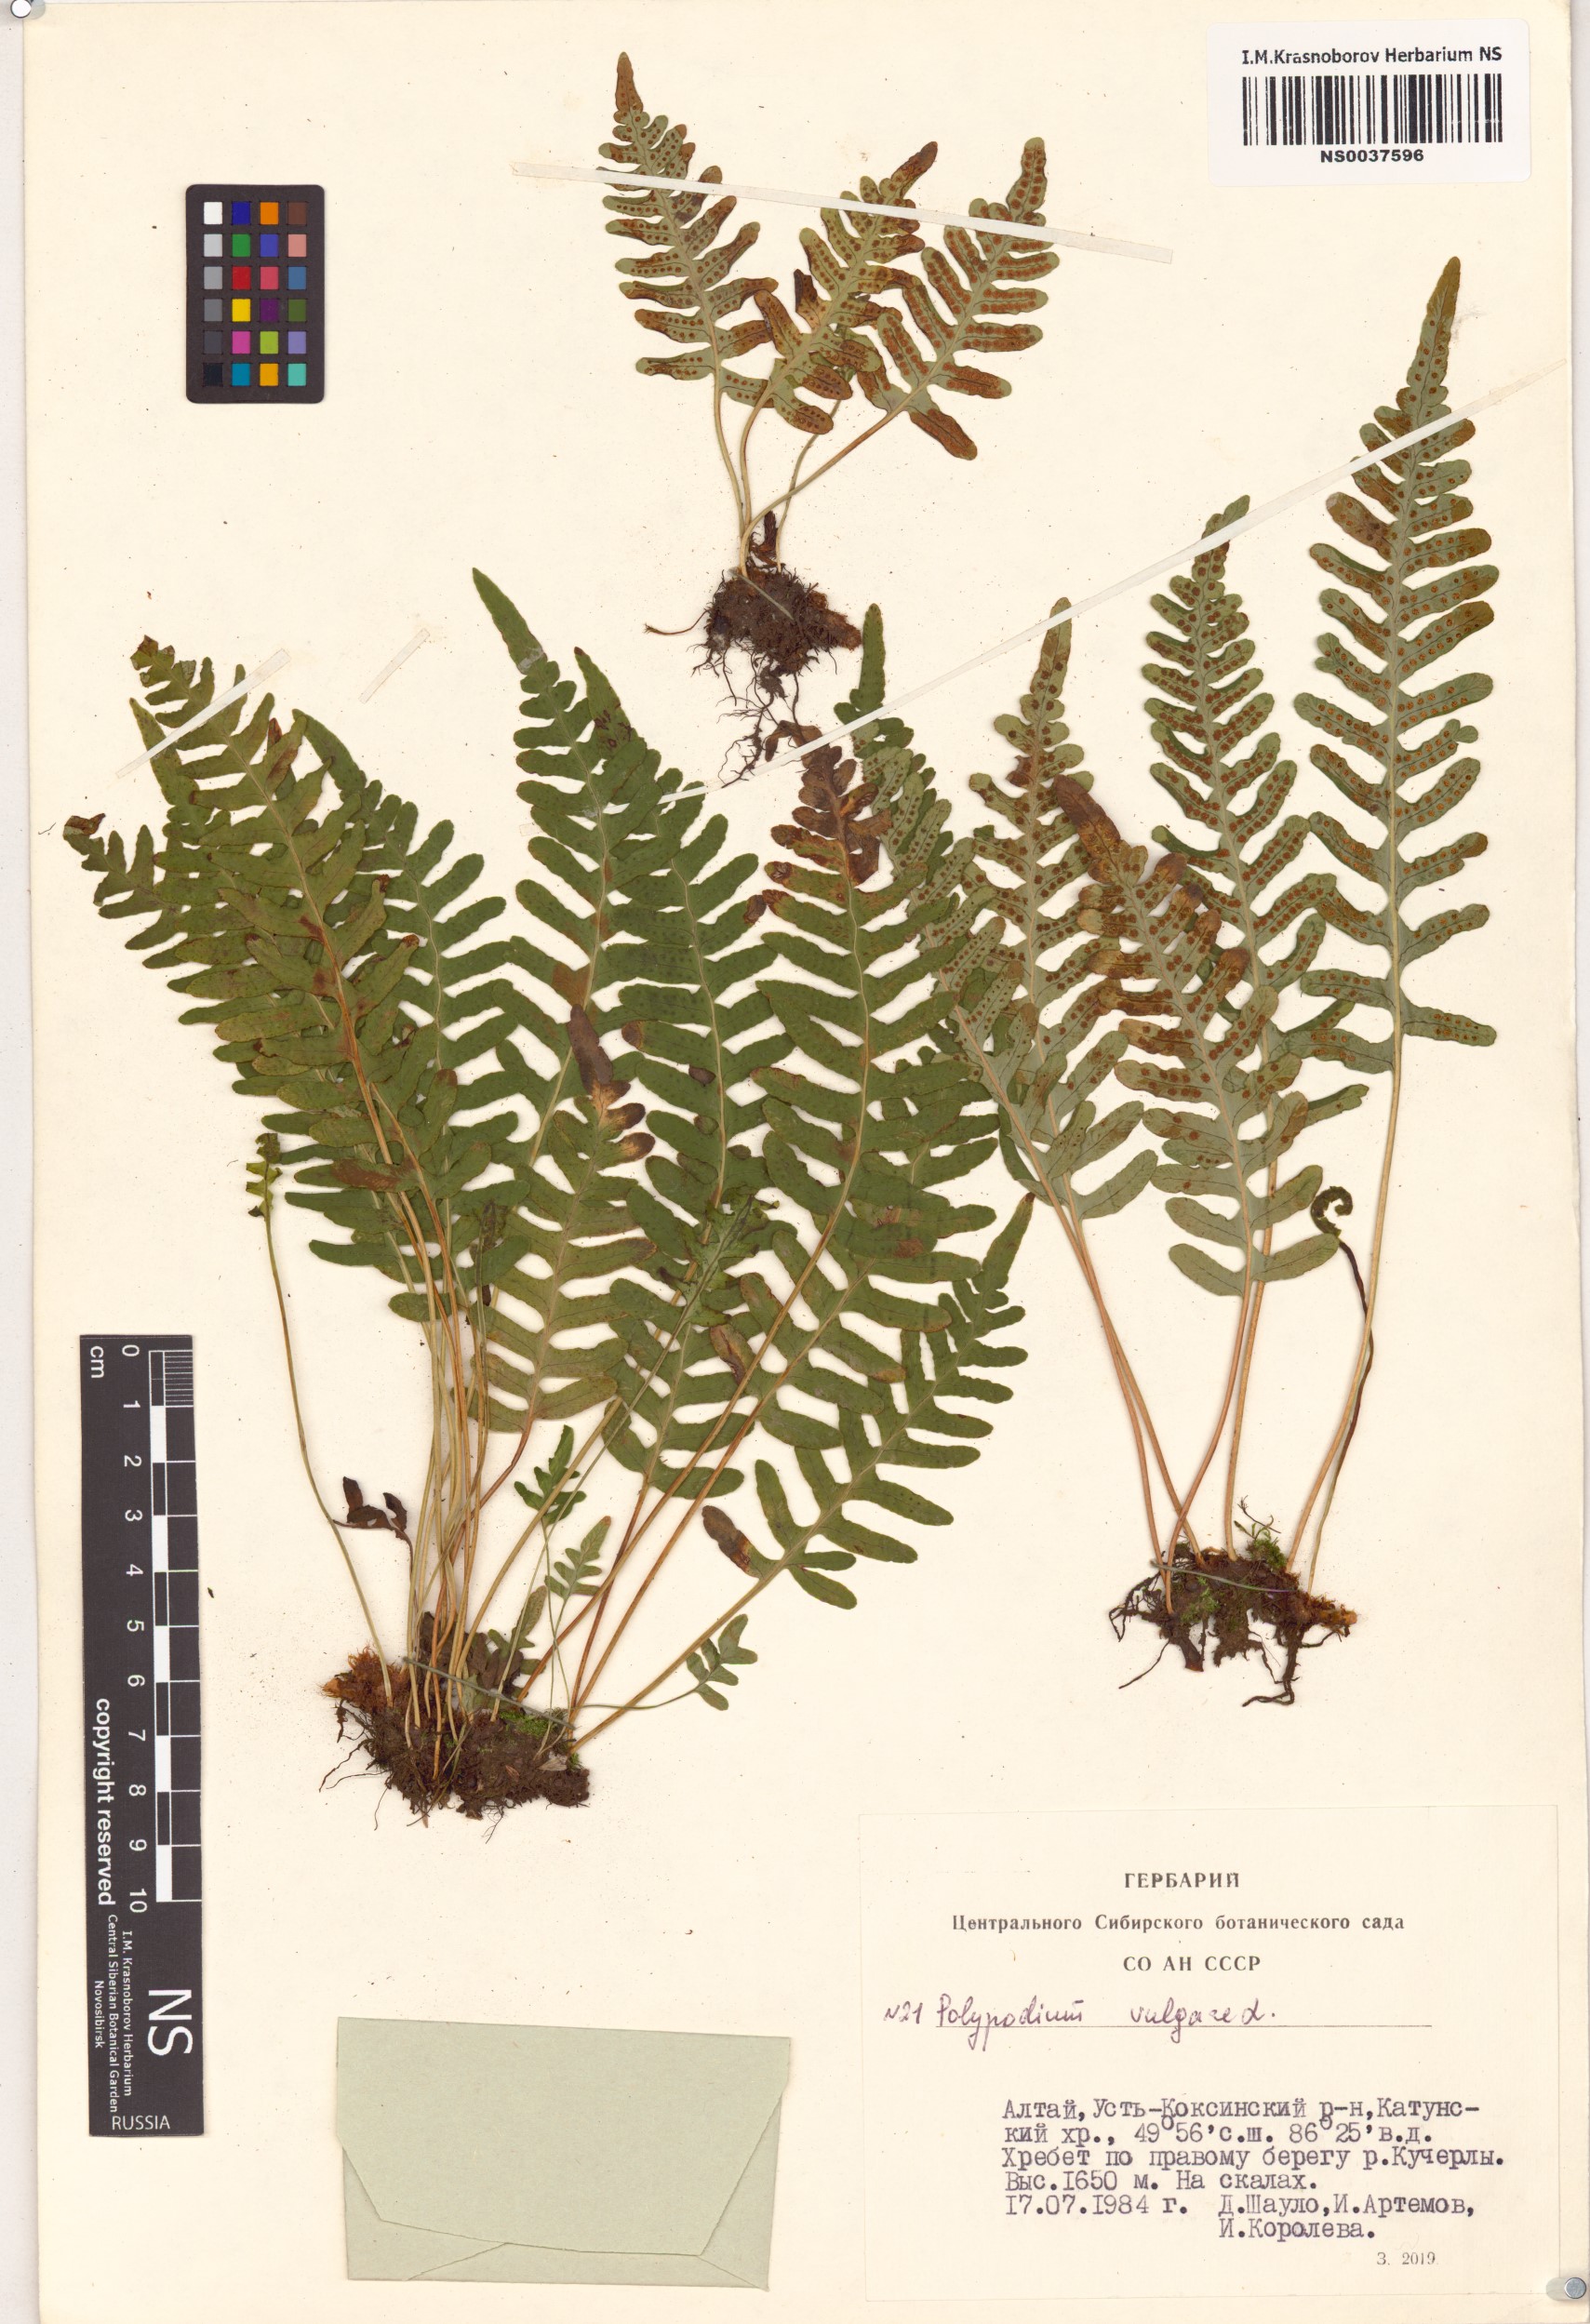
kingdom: Plantae
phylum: Tracheophyta
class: Polypodiopsida
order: Polypodiales
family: Polypodiaceae
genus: Polypodium
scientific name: Polypodium vulgare
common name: Common polypody
